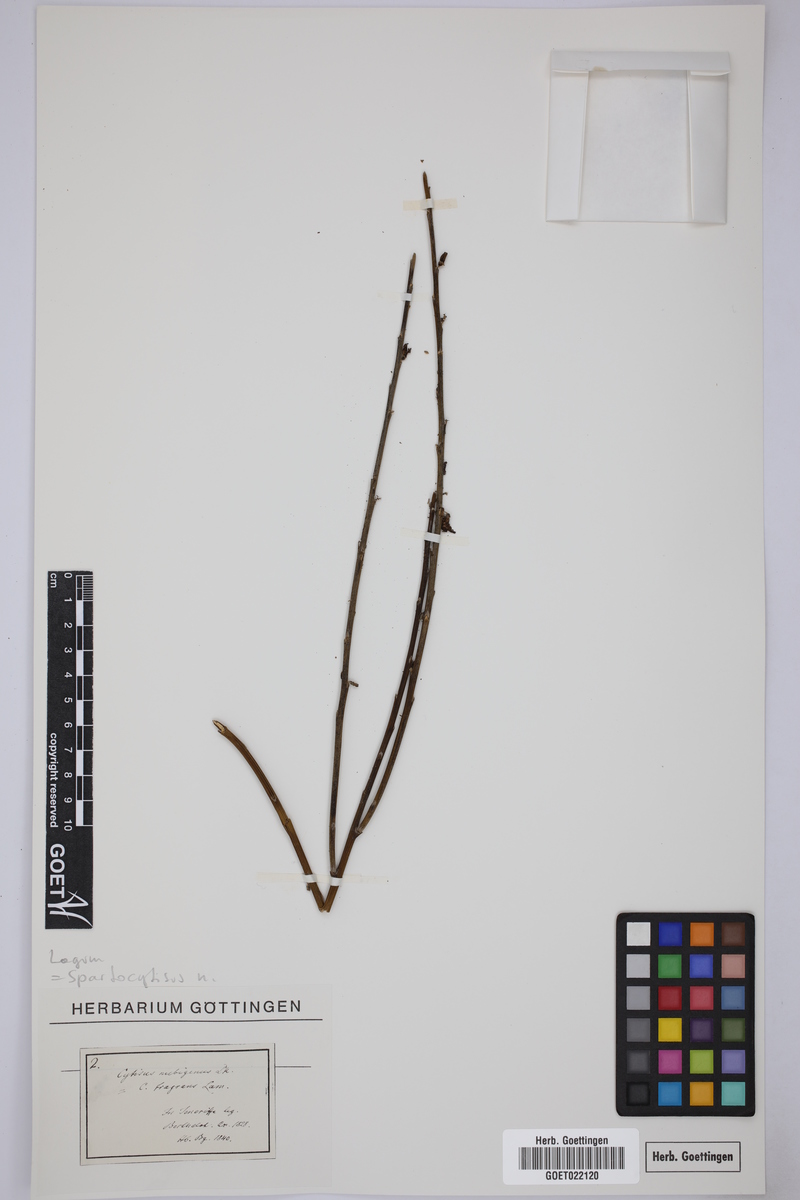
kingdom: Plantae
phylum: Tracheophyta
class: Magnoliopsida
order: Fabales
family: Fabaceae
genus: Cytisus
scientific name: Cytisus supranubius
